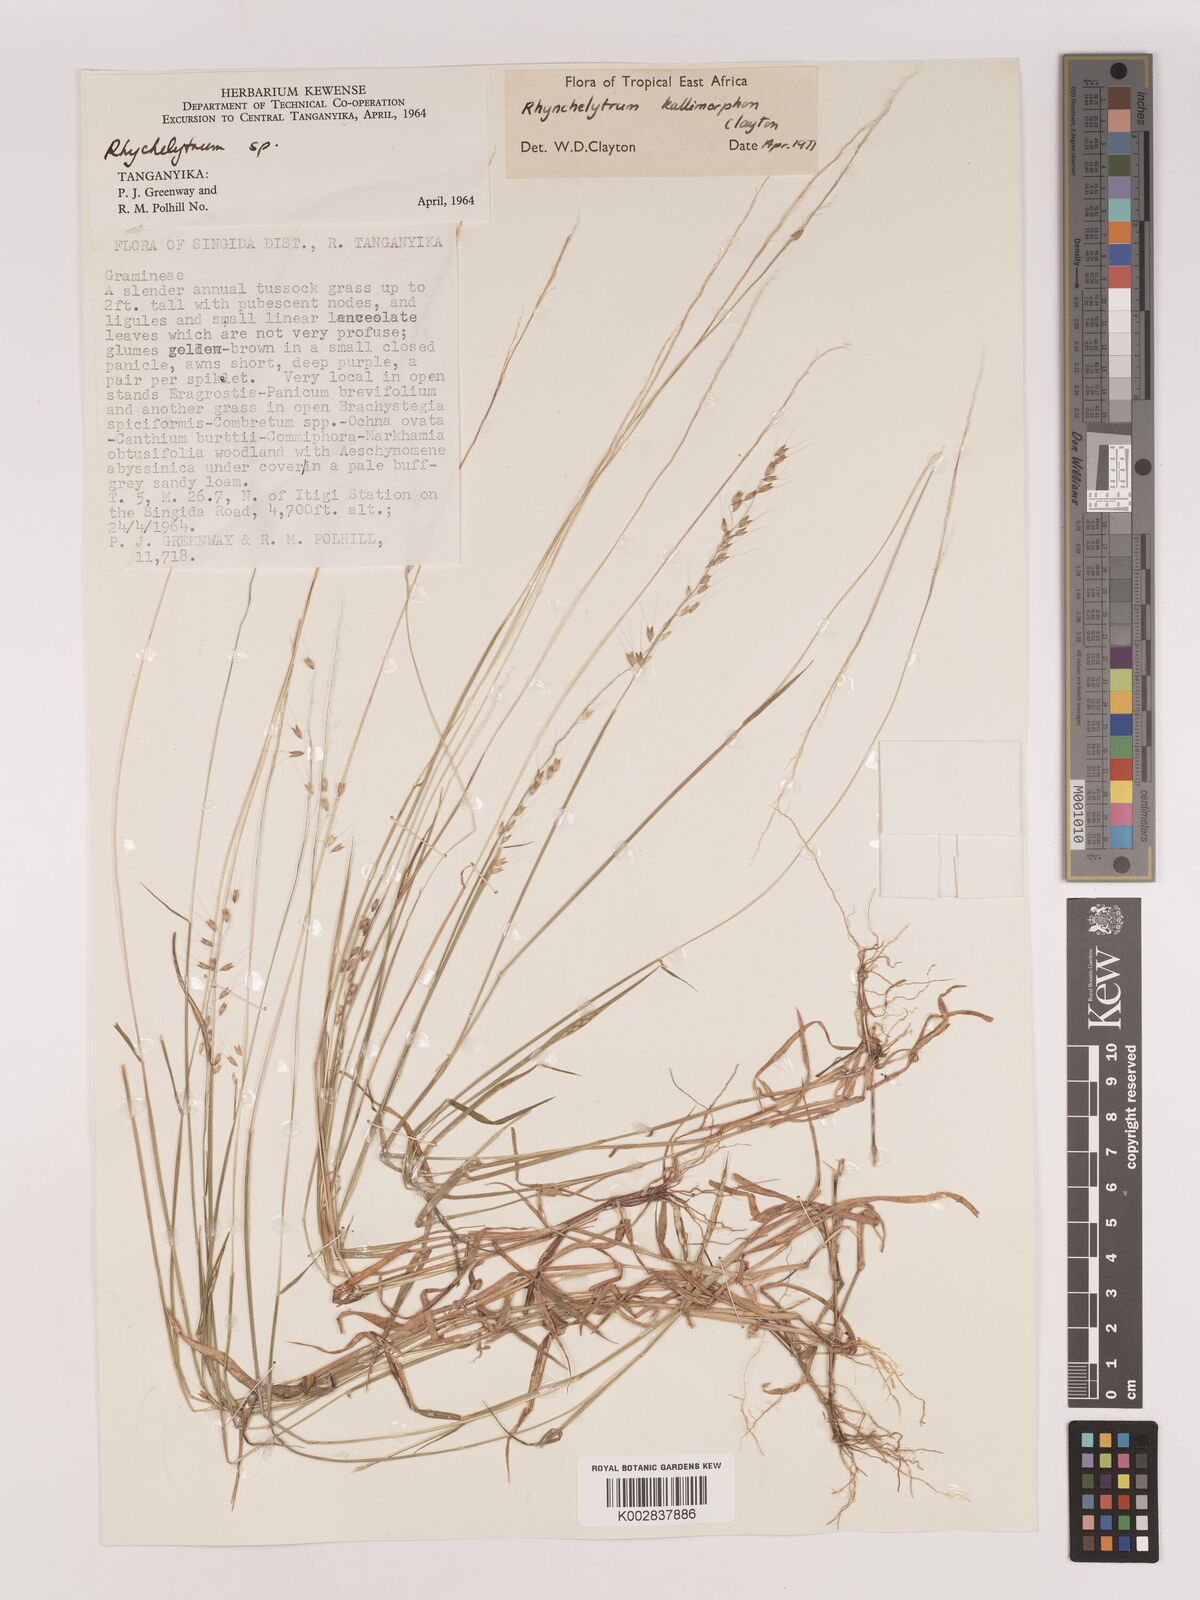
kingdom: Plantae
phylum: Tracheophyta
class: Liliopsida
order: Poales
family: Poaceae
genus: Melinis
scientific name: Melinis kallimorpha
